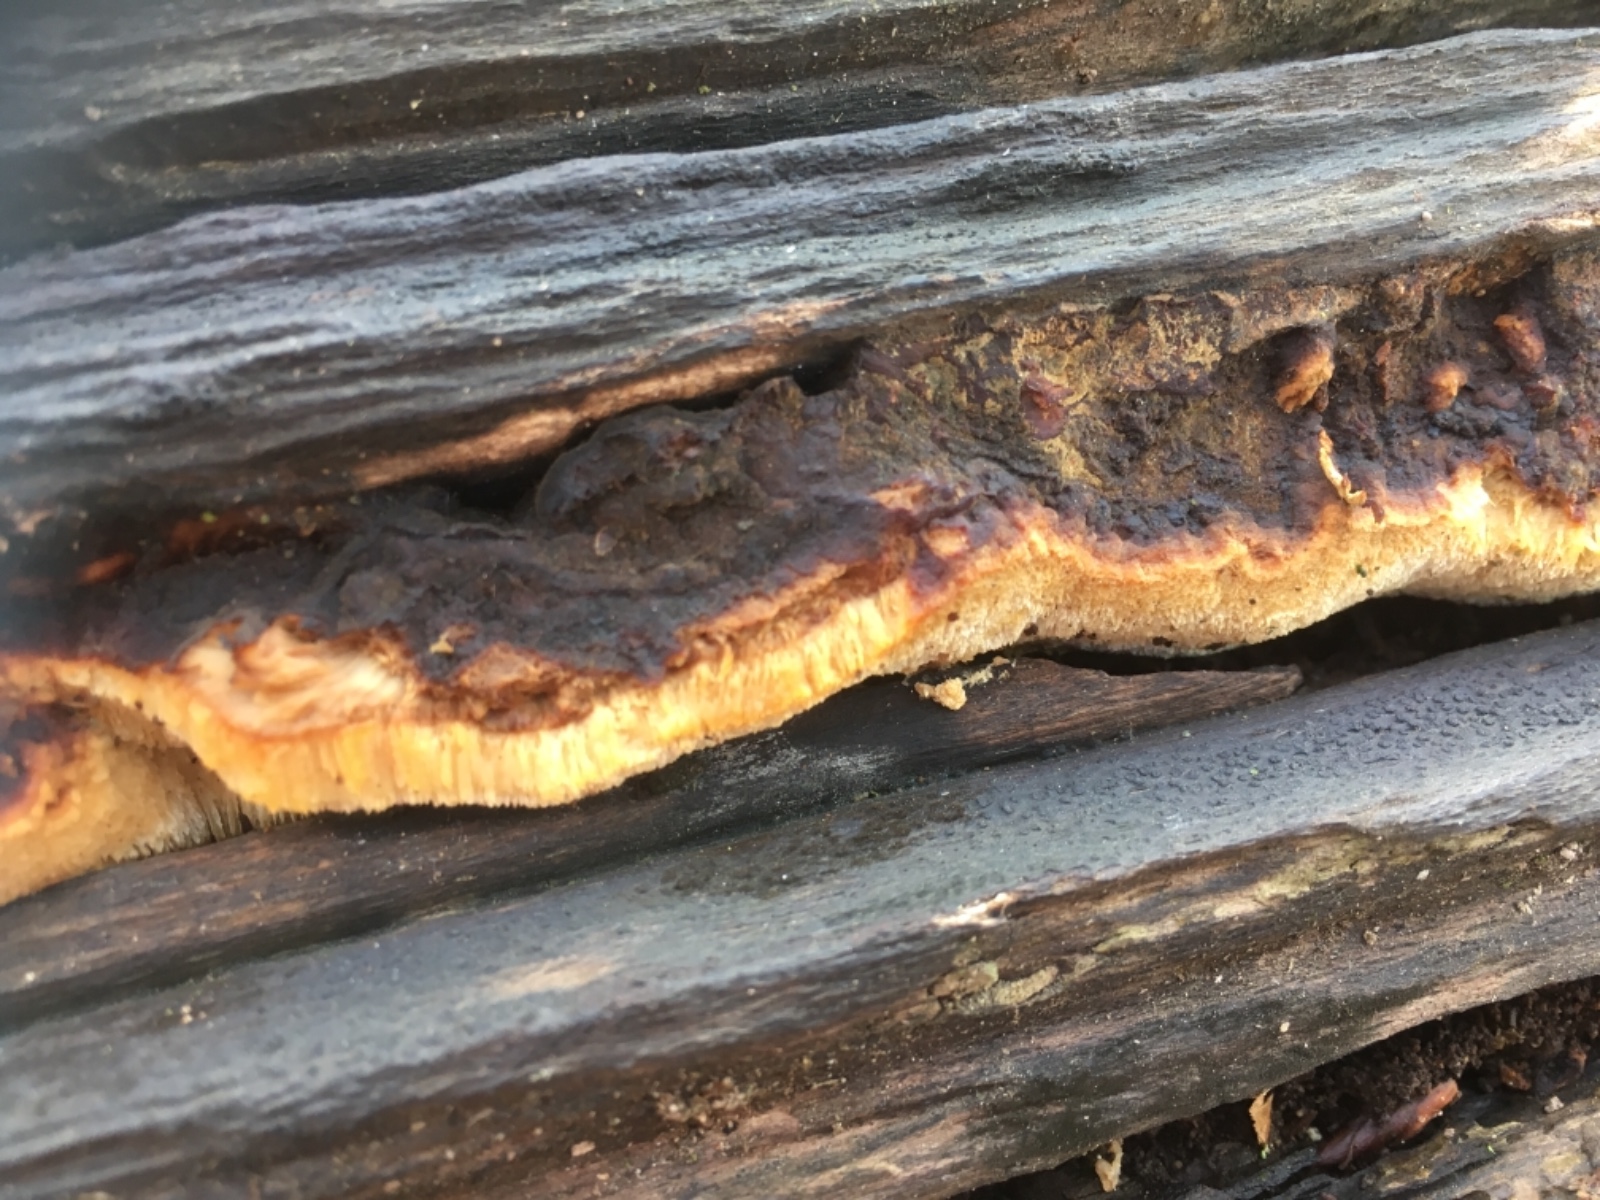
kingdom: Fungi
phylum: Basidiomycota
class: Agaricomycetes
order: Polyporales
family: Ischnodermataceae
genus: Ischnoderma
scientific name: Ischnoderma resinosum
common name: løv-tjæreporesvamp
